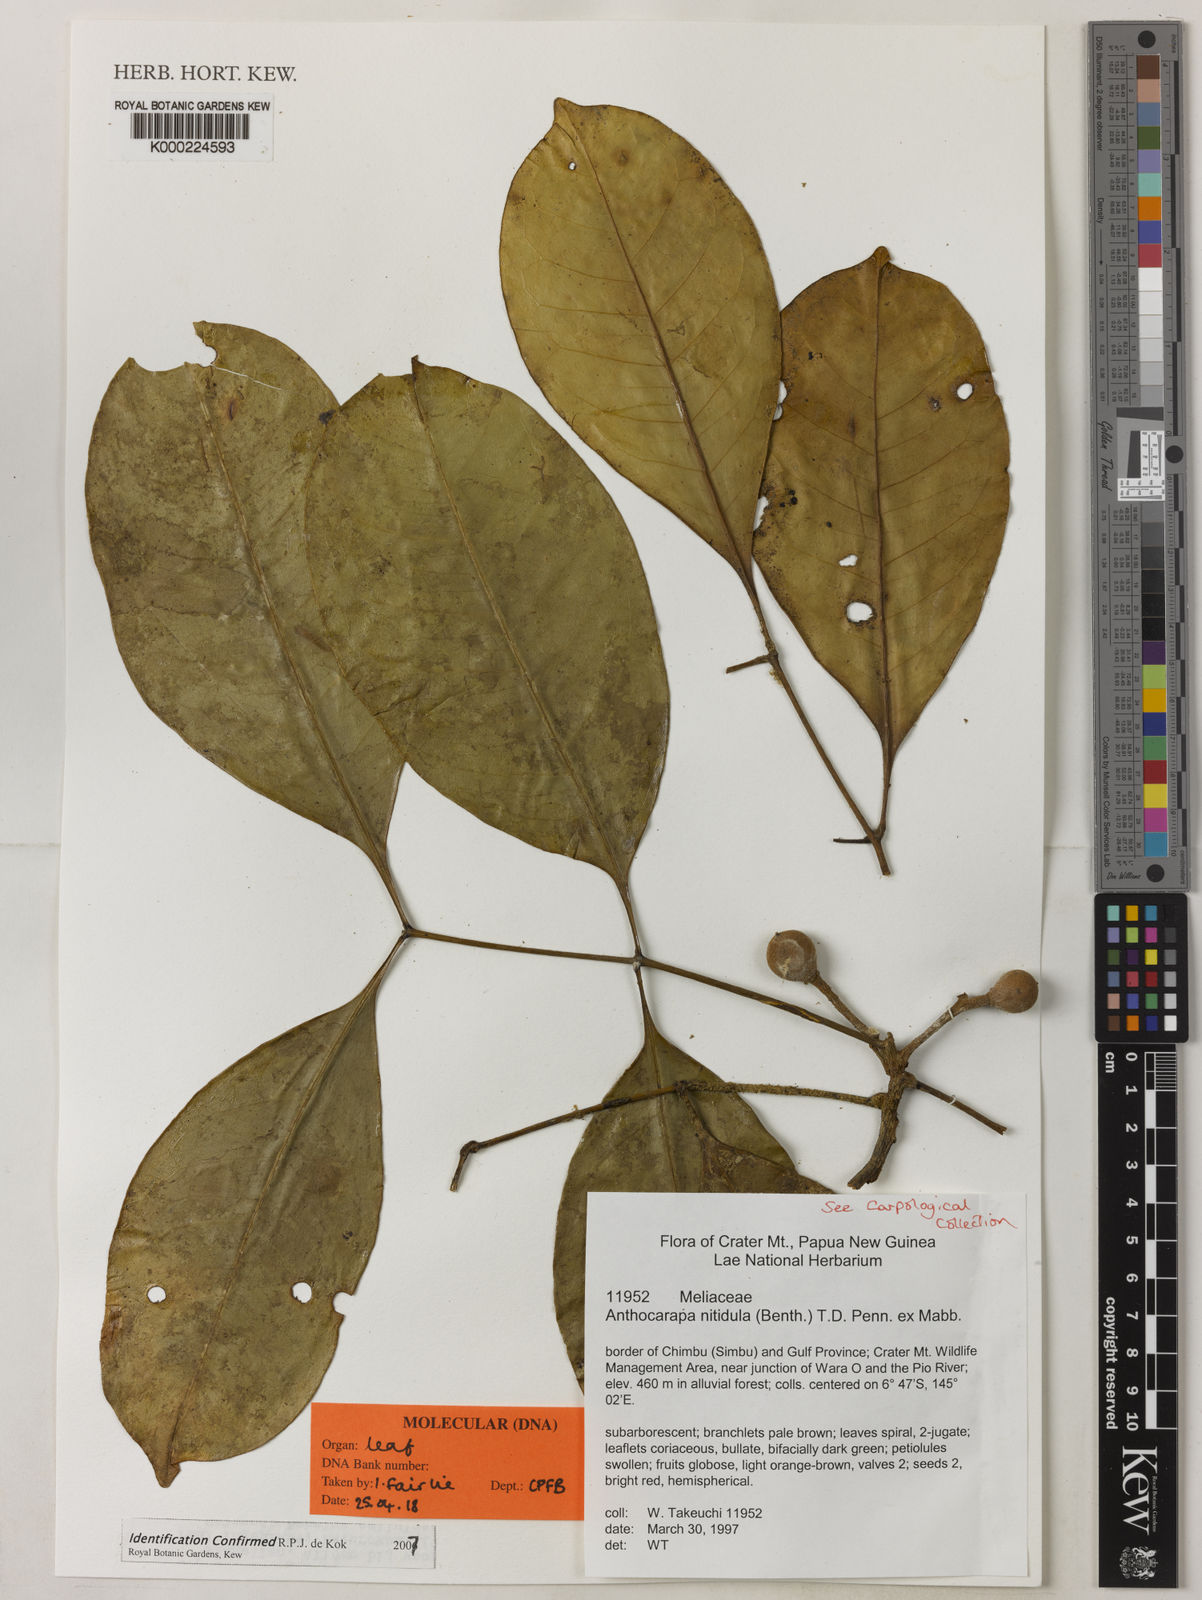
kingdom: Plantae
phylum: Tracheophyta
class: Magnoliopsida
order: Sapindales
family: Meliaceae
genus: Anthocarapa
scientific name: Anthocarapa nitidula
